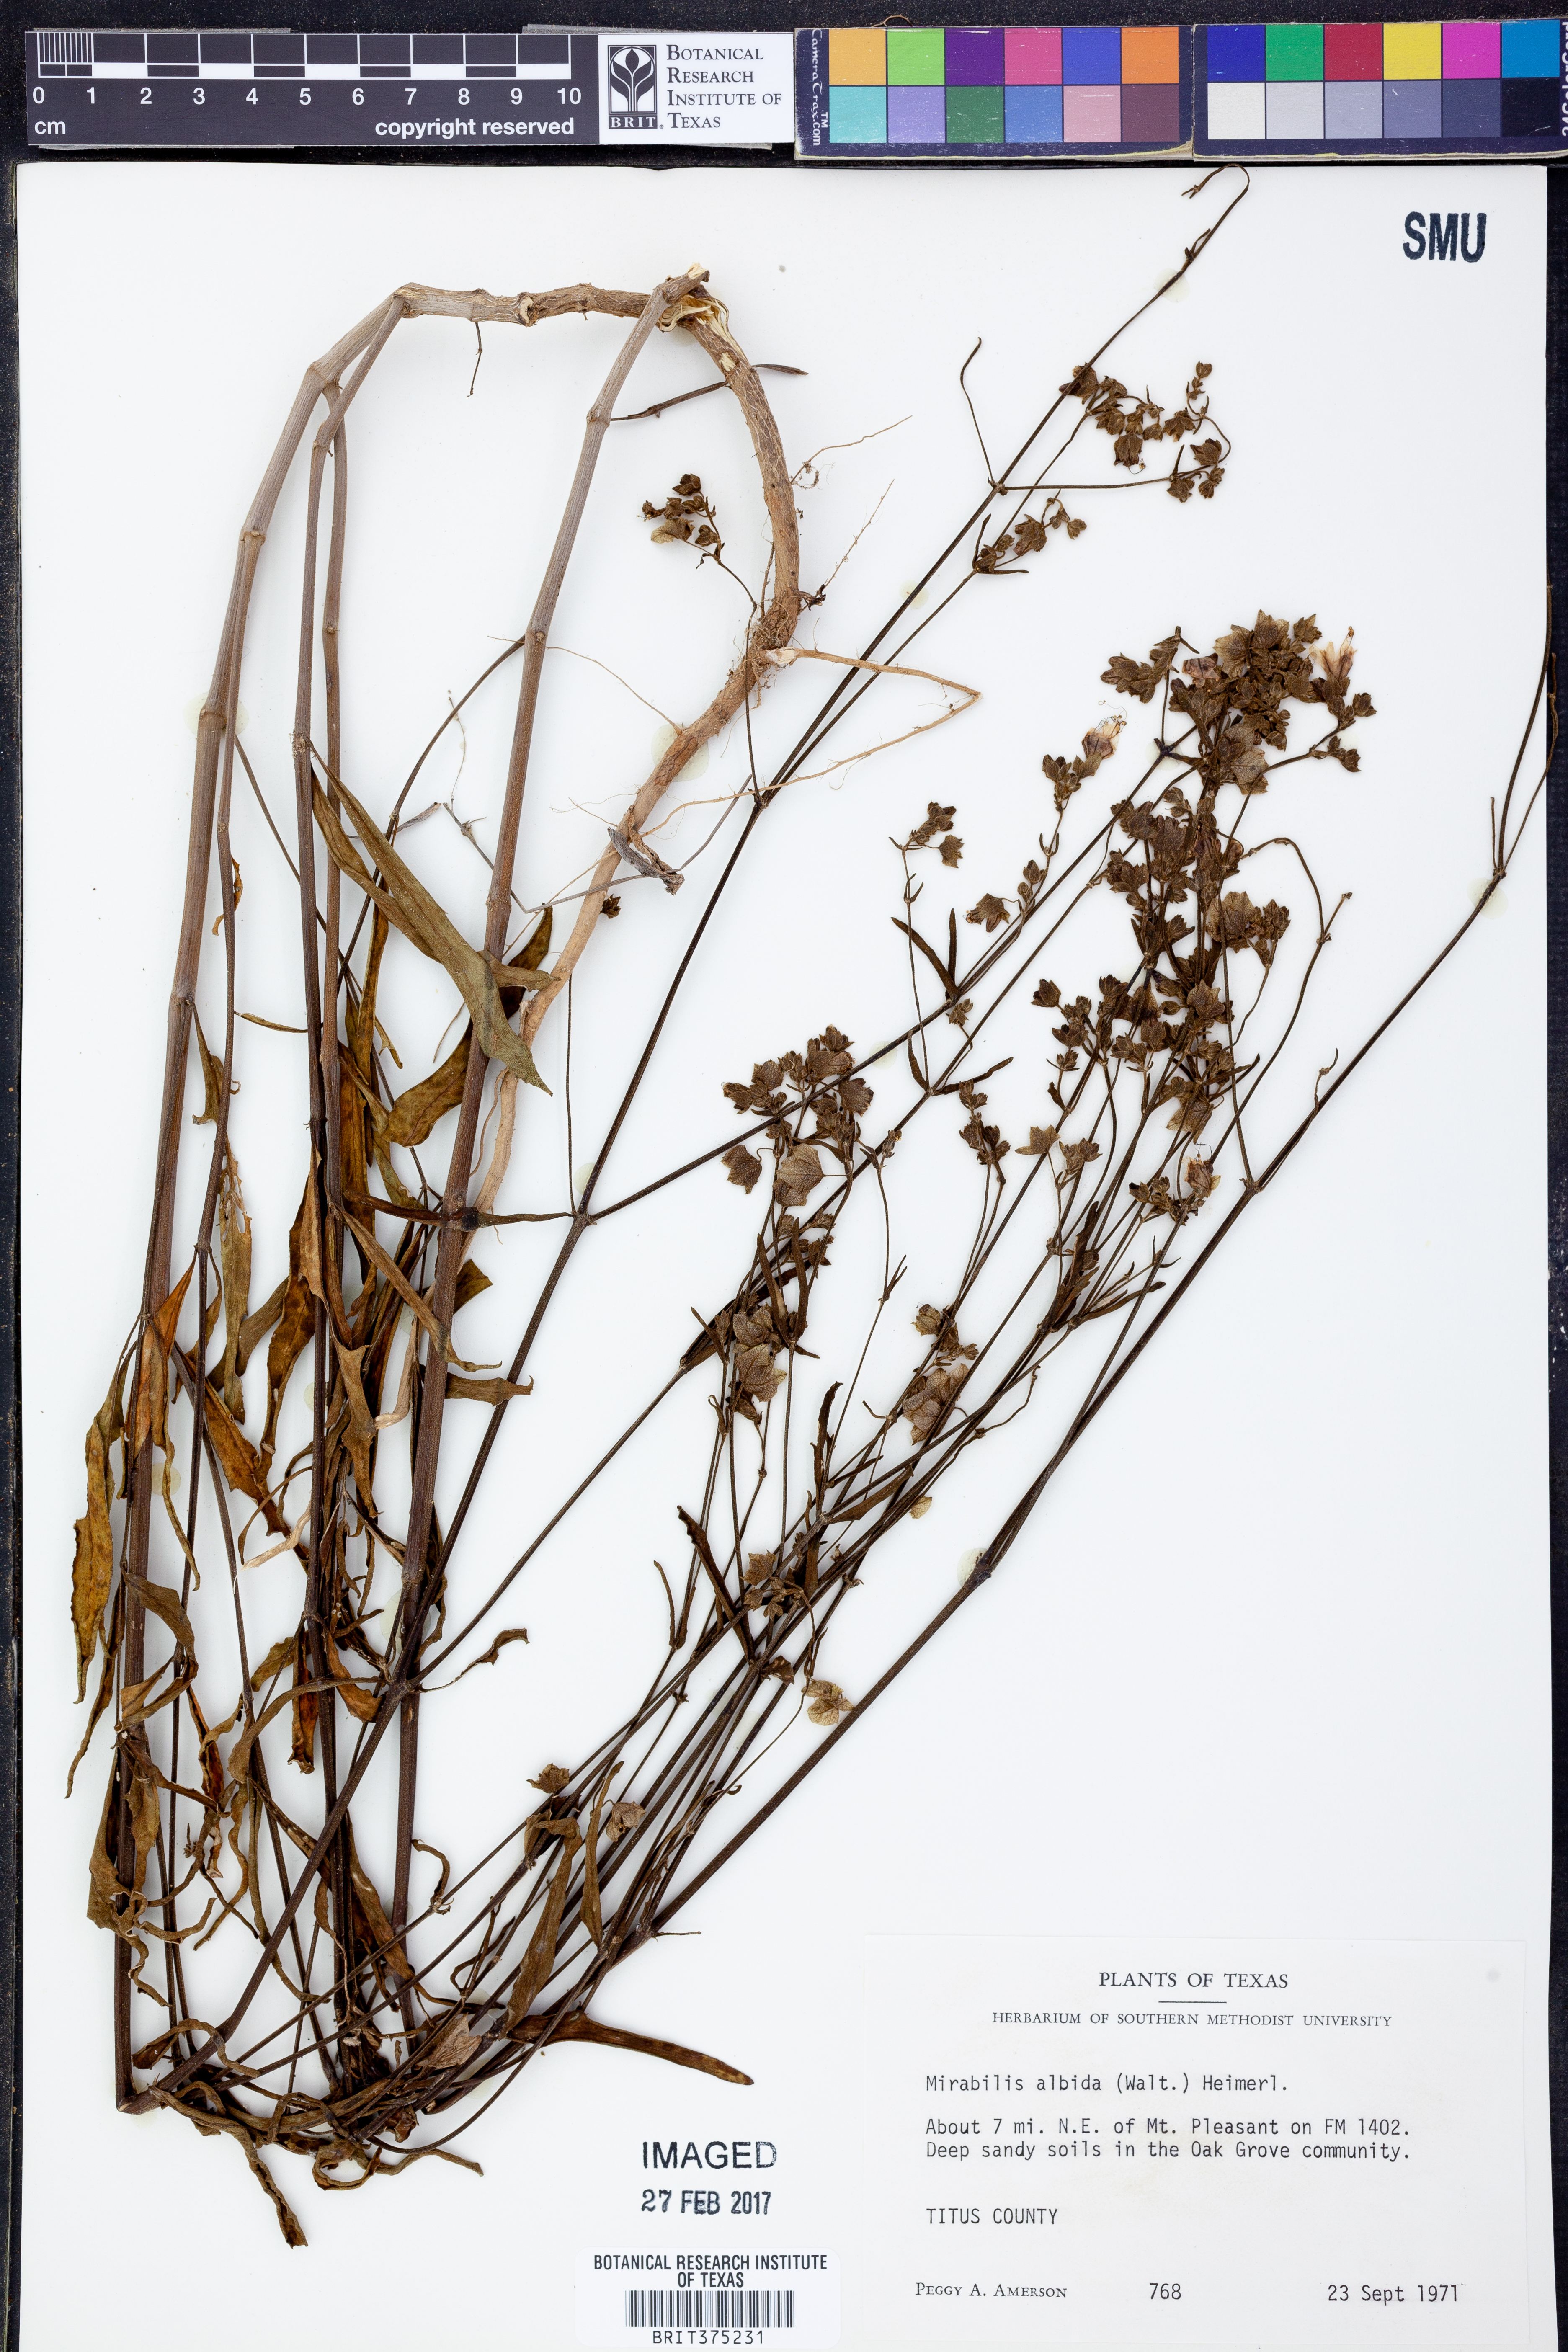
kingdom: Plantae
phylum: Tracheophyta
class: Magnoliopsida
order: Caryophyllales
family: Nyctaginaceae
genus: Mirabilis
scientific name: Mirabilis albida
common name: Hairy four-o'clock
